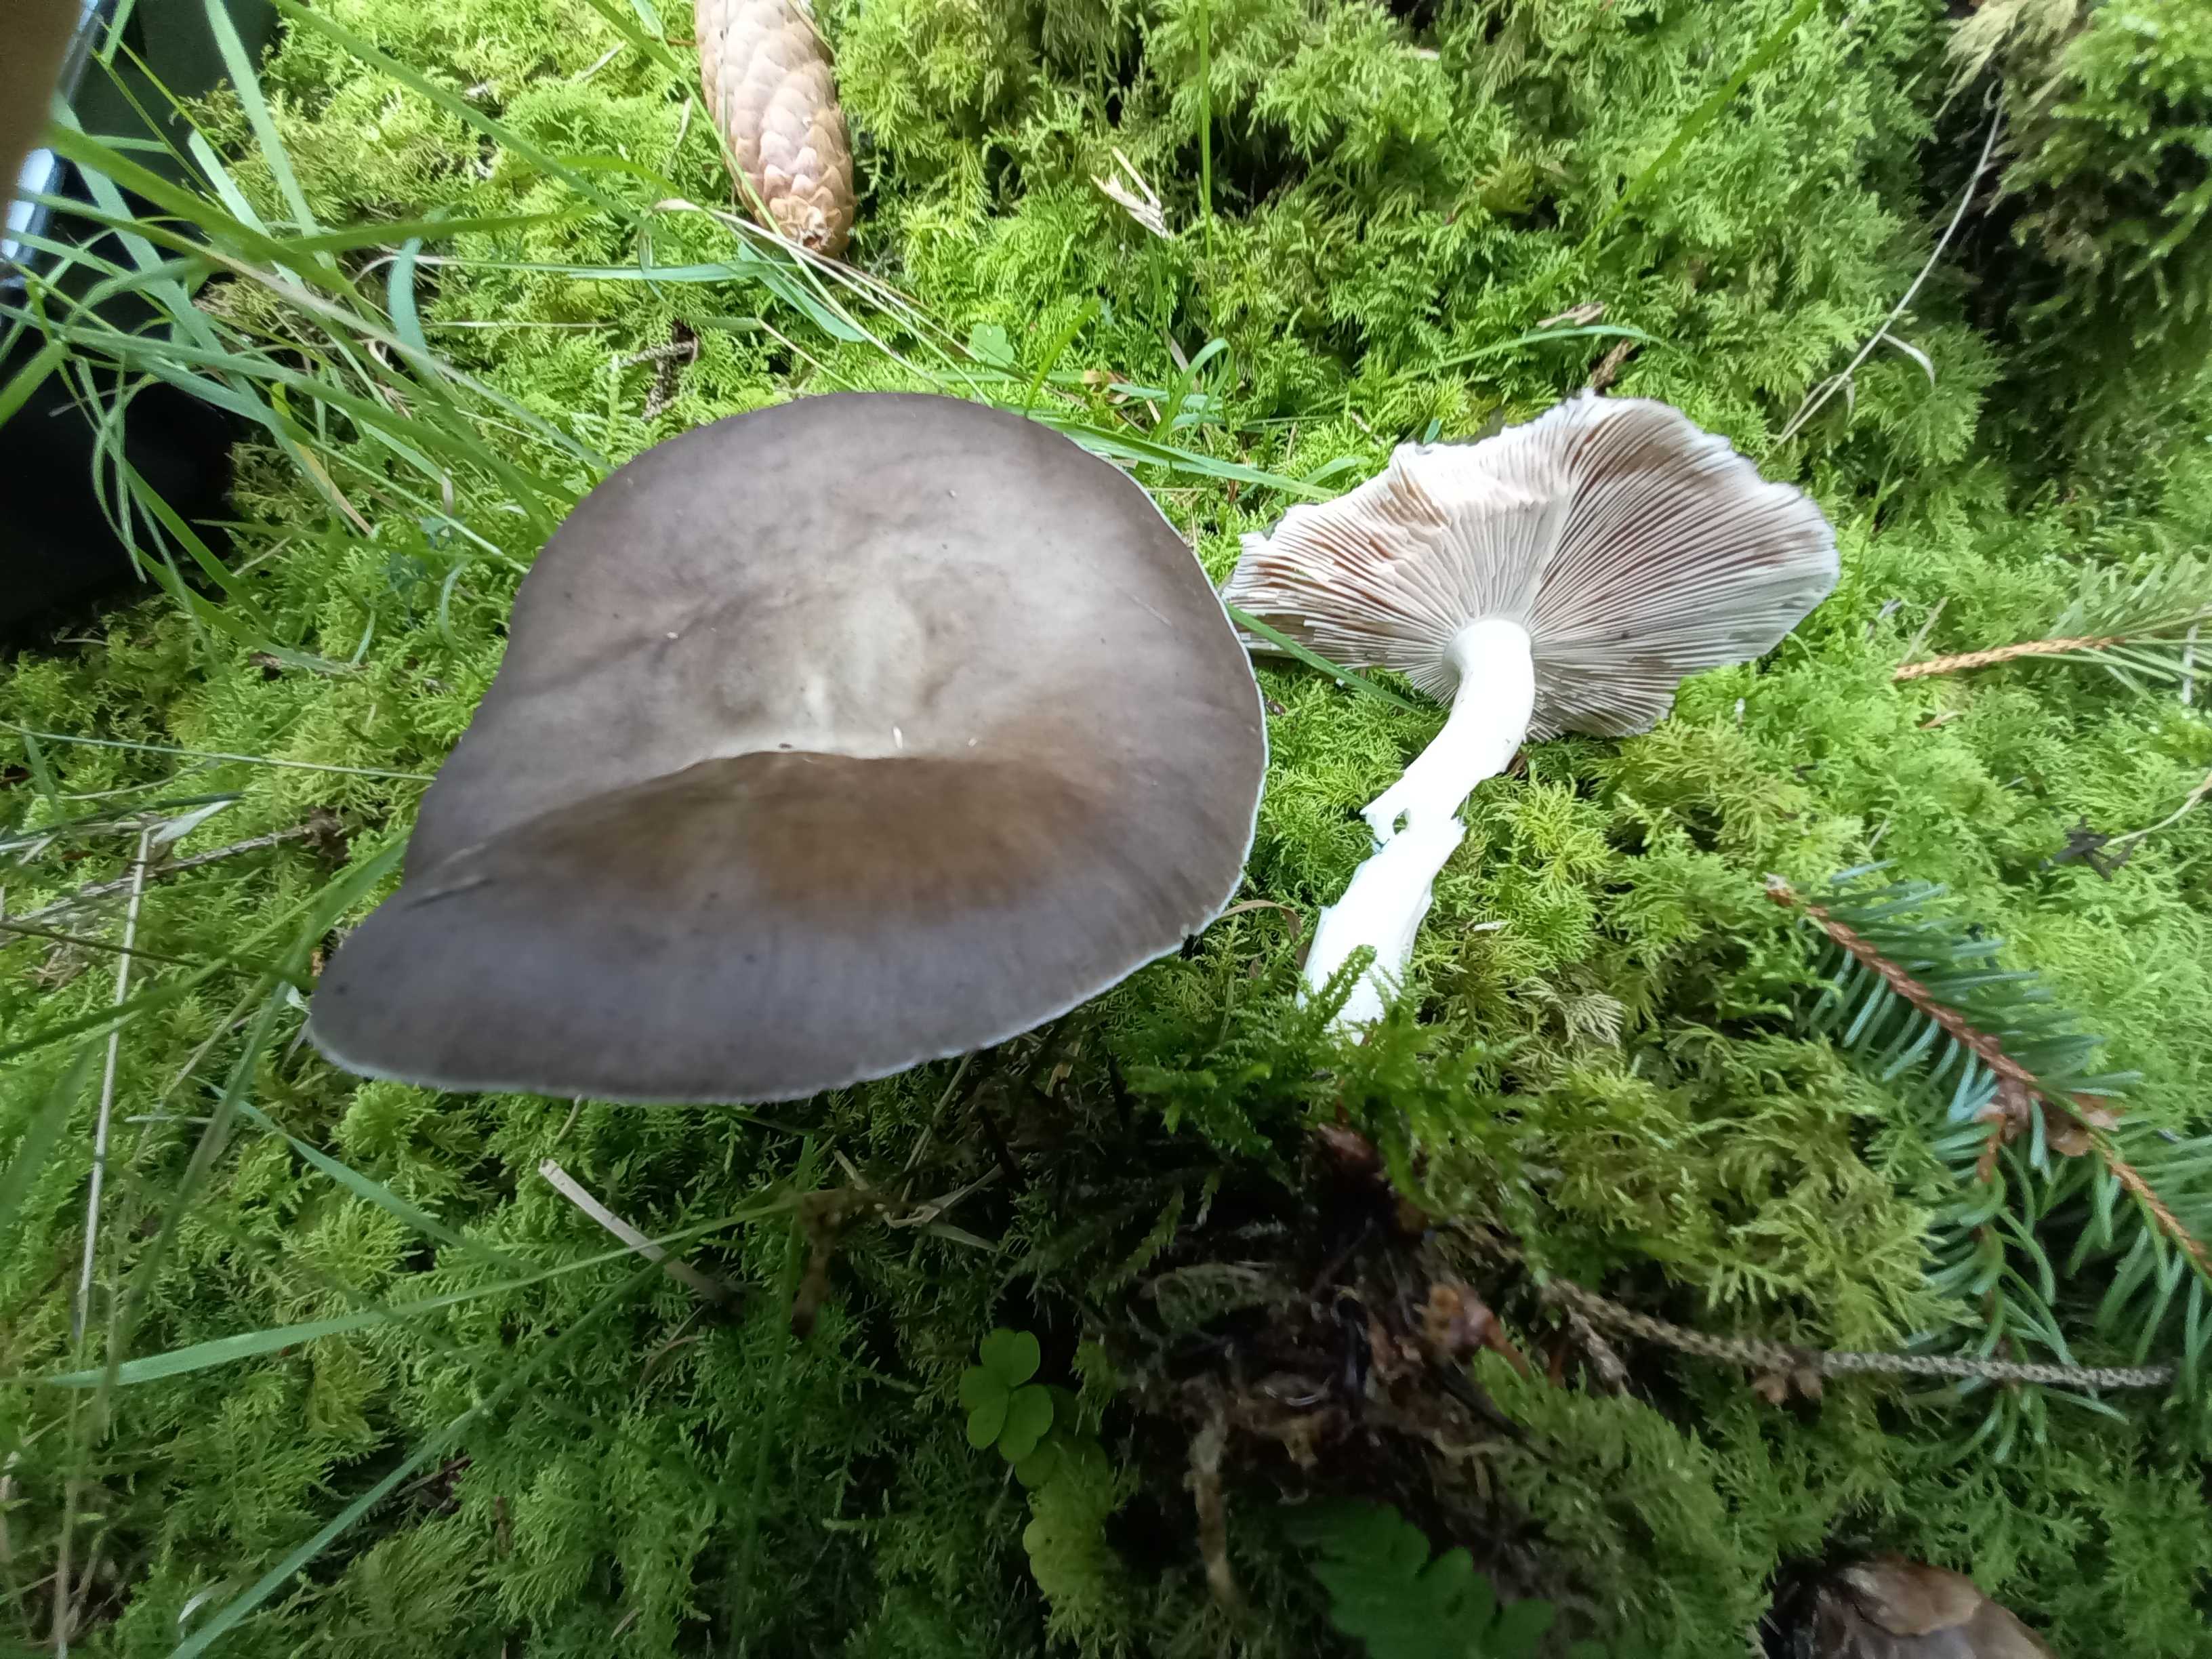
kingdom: Fungi
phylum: Basidiomycota
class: Agaricomycetes
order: Agaricales
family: Pluteaceae
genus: Pluteus
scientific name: Pluteus cervinus
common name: sodfarvet skærmhat
